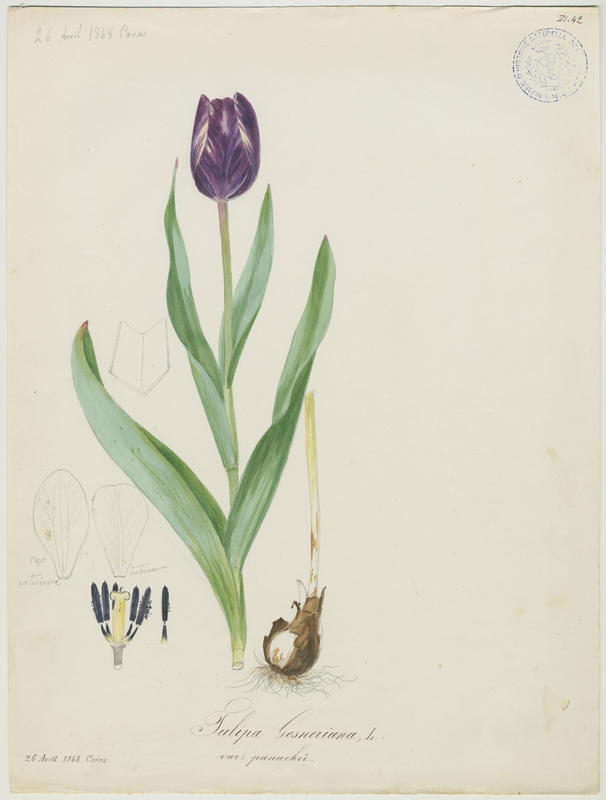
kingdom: Plantae
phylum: Tracheophyta
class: Liliopsida
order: Liliales
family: Liliaceae
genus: Tulipa
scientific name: Tulipa gesneriana
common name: Garden tulip
